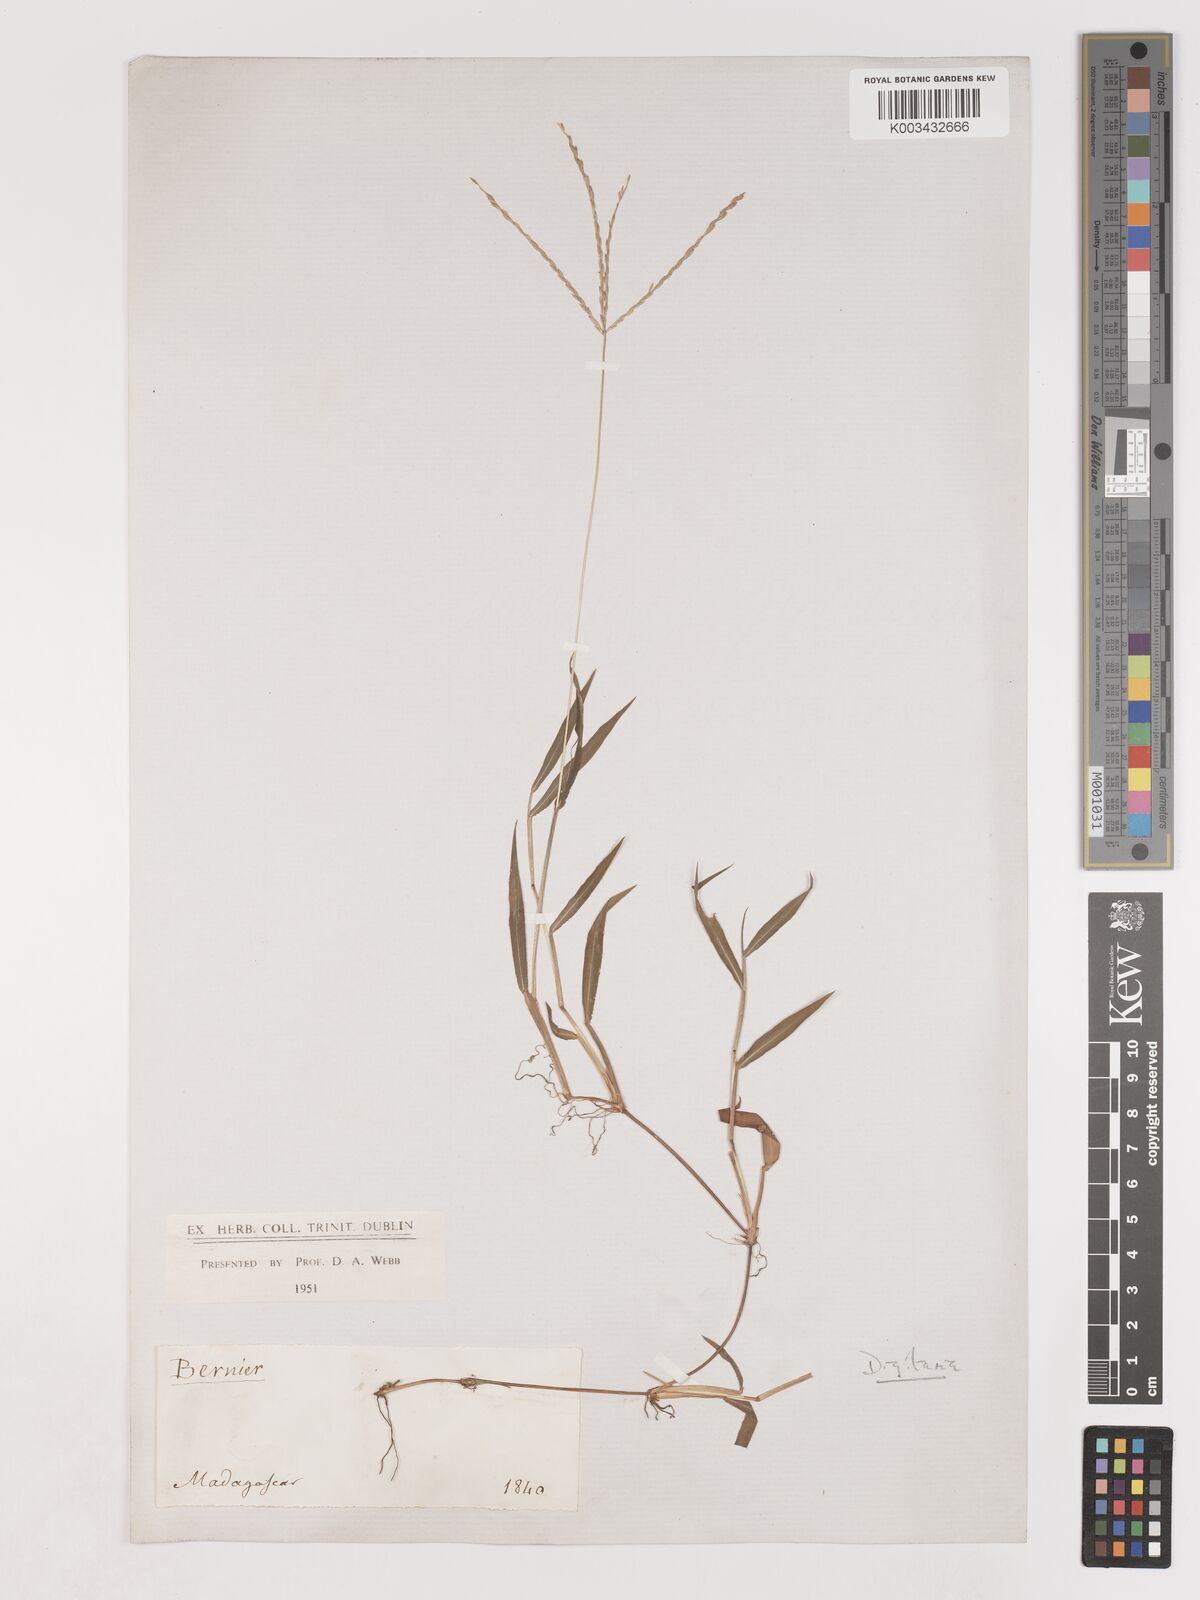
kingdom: Plantae
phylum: Tracheophyta
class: Liliopsida
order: Poales
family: Poaceae
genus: Digitaria
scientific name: Digitaria radicosa
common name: Trailing crabgrass
